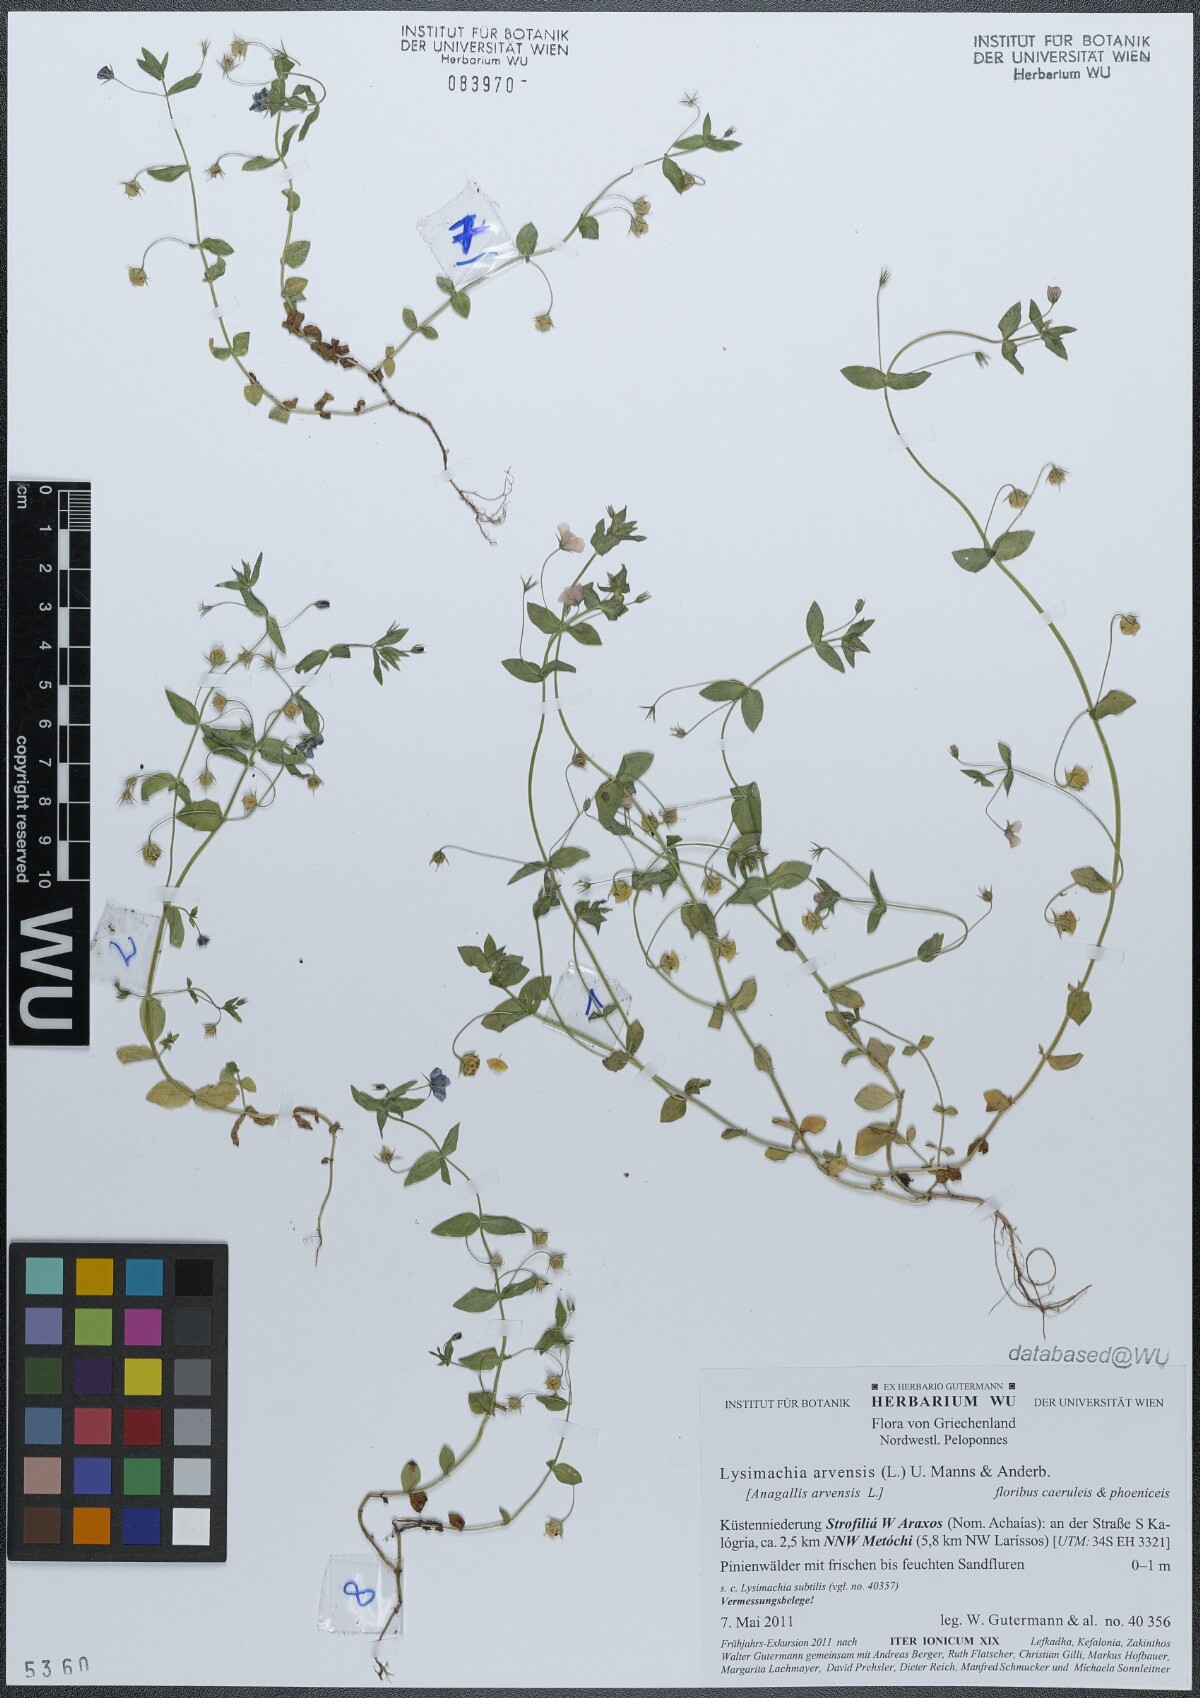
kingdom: Plantae
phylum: Tracheophyta
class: Magnoliopsida
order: Ericales
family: Primulaceae
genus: Lysimachia
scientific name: Lysimachia arvensis
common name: Scarlet pimpernel
